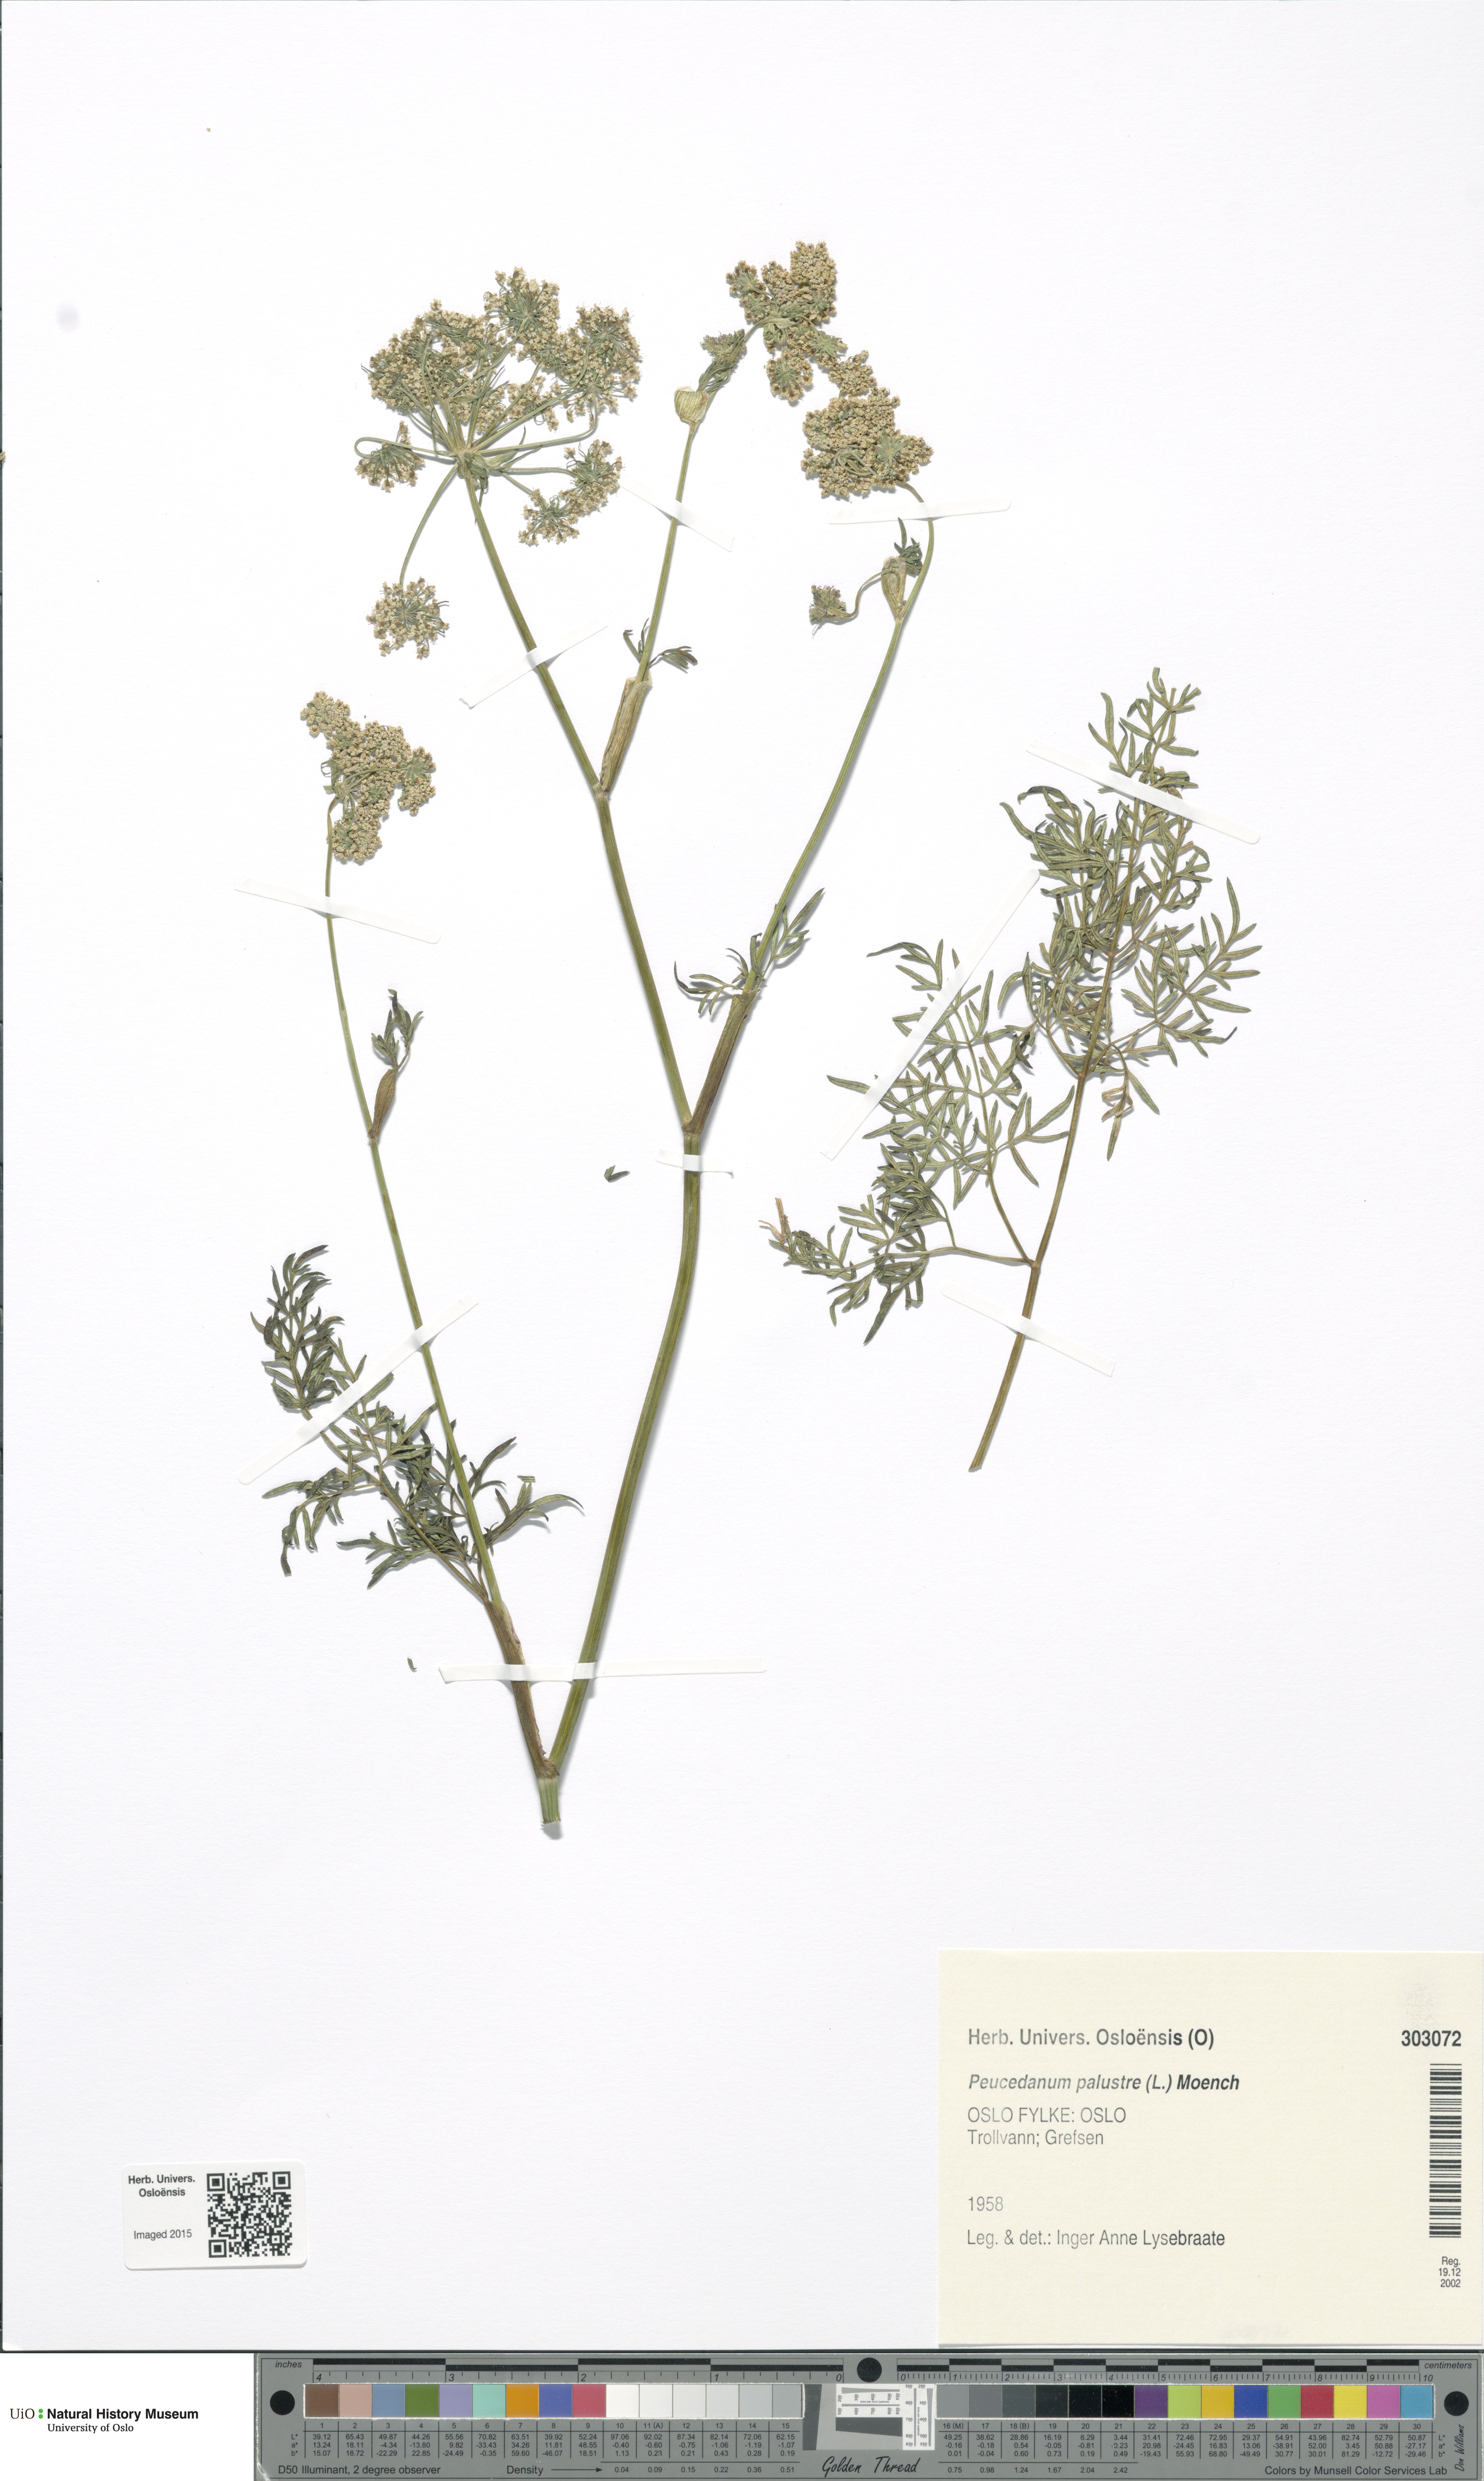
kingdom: Plantae
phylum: Tracheophyta
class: Magnoliopsida
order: Apiales
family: Apiaceae
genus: Thysselinum
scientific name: Thysselinum palustre
